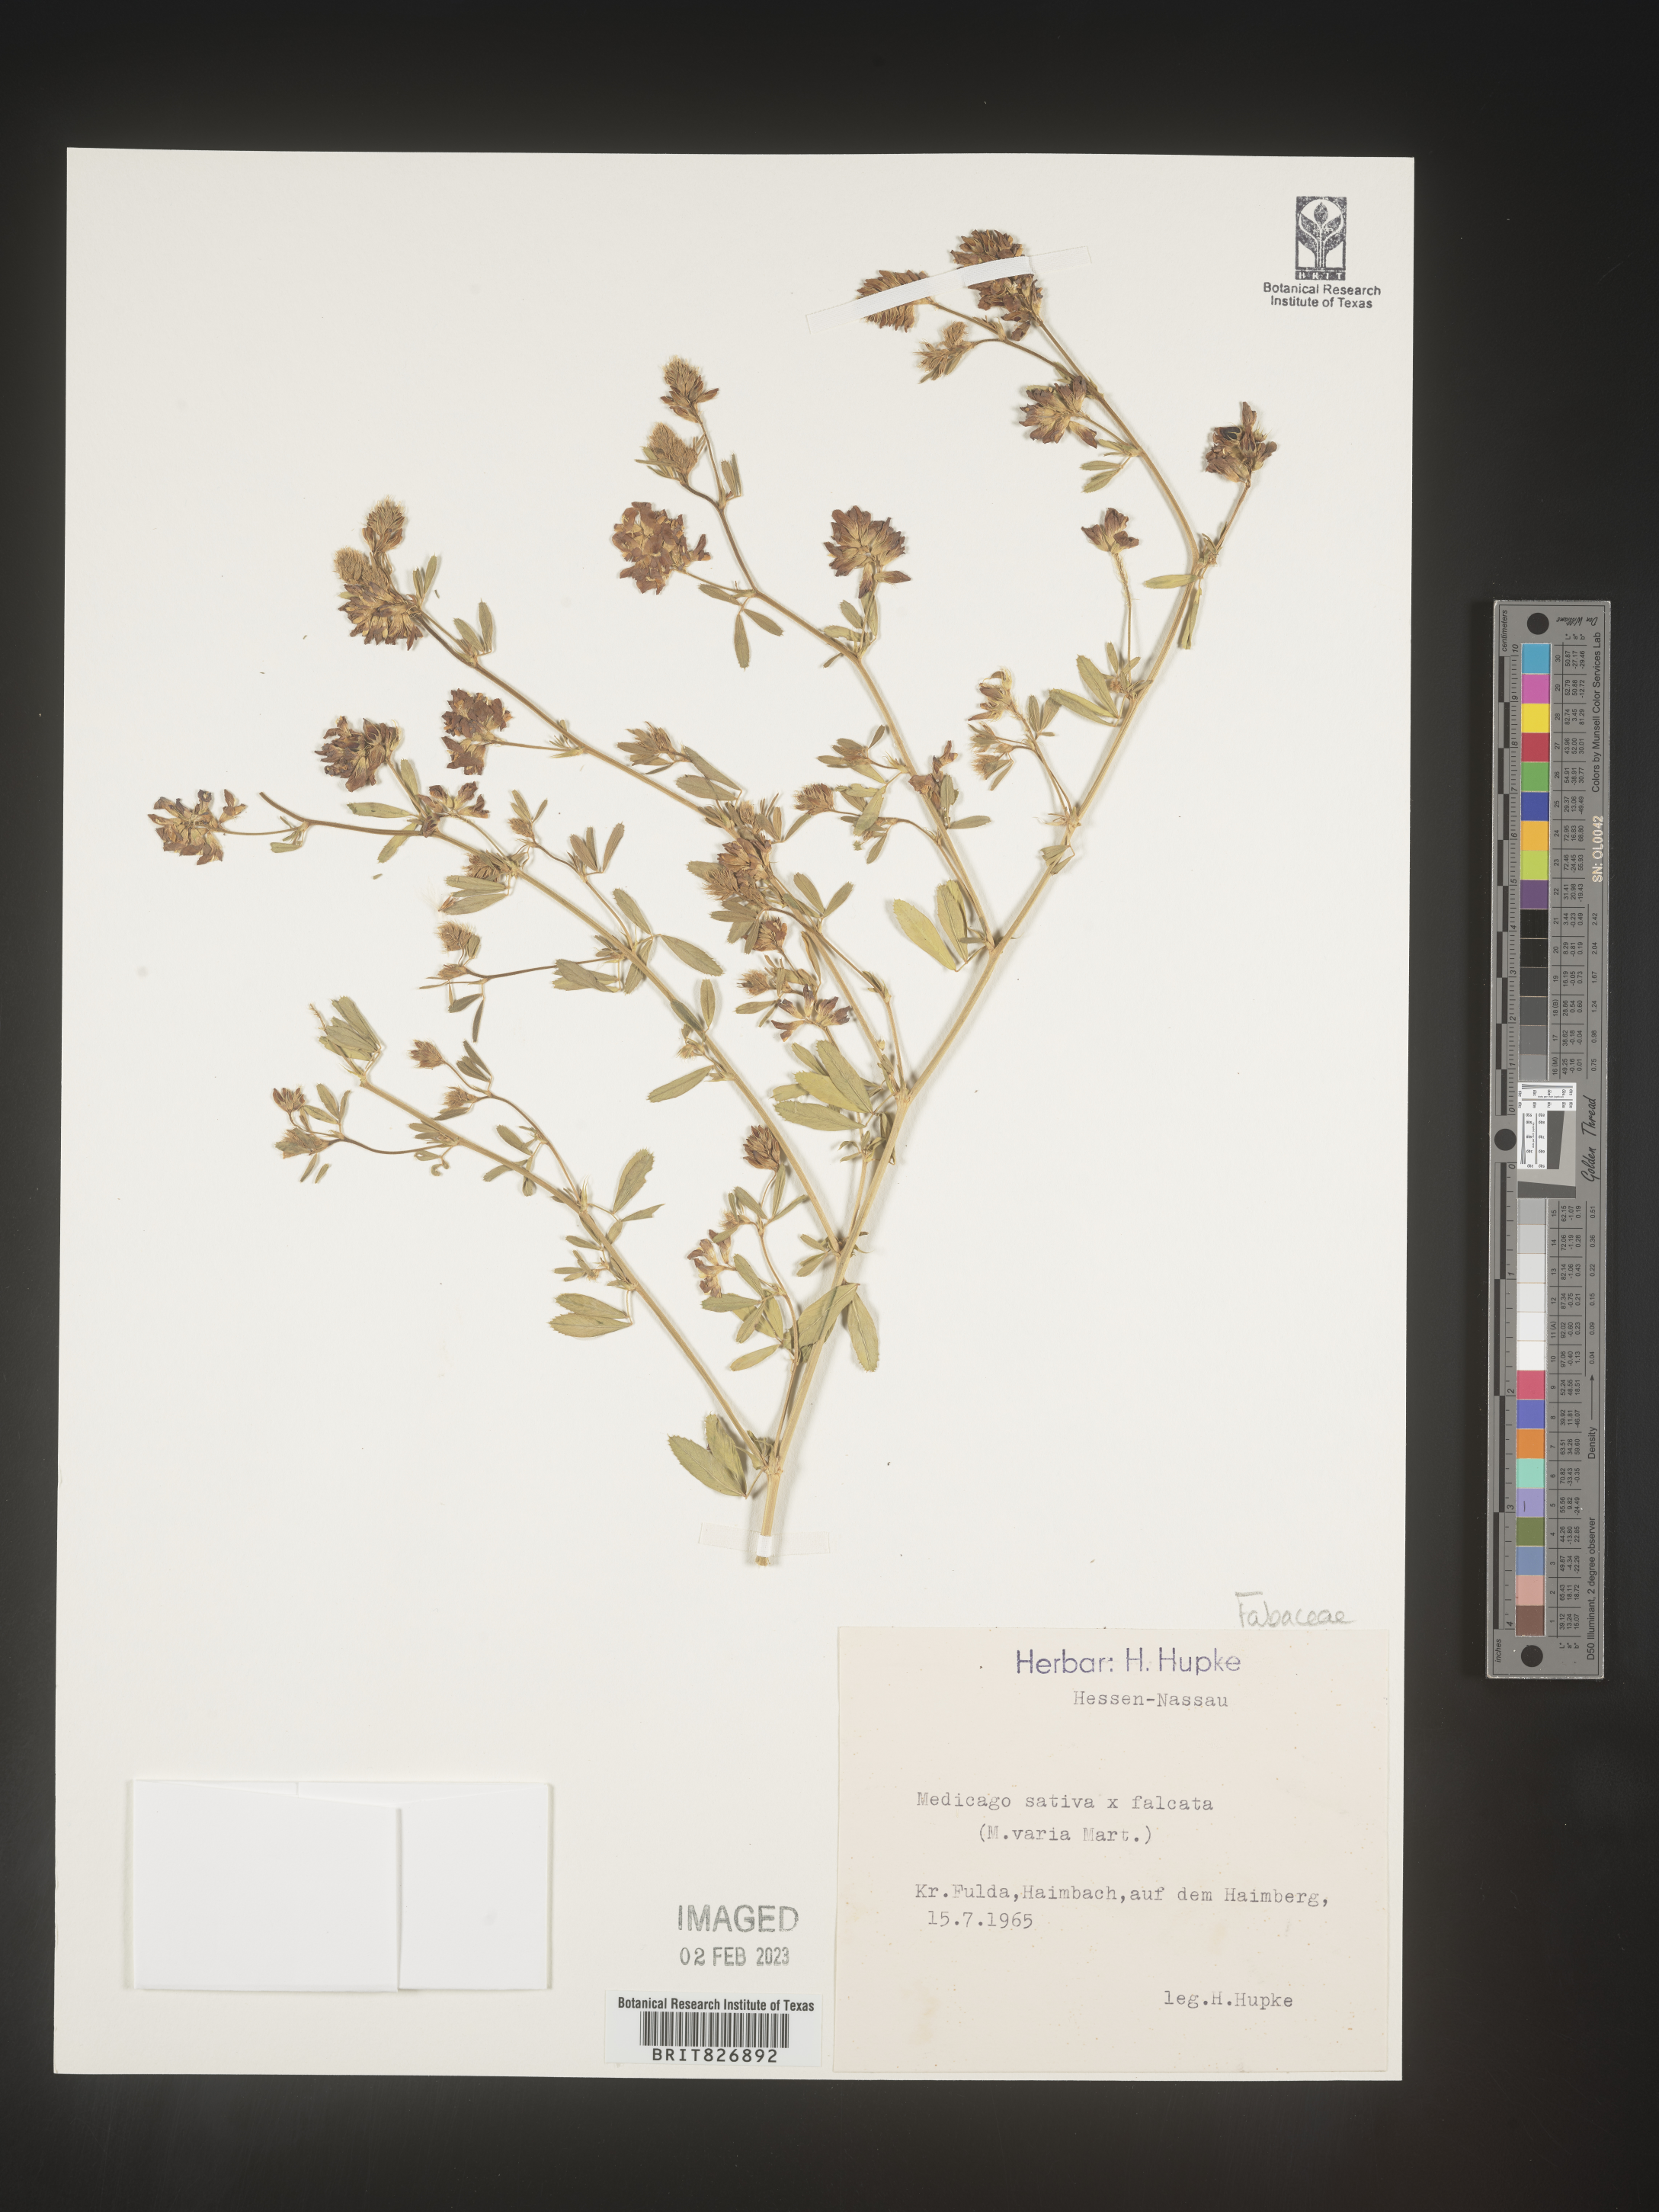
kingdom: Plantae
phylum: Tracheophyta
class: Magnoliopsida
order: Fabales
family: Fabaceae
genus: Medicago
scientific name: Medicago
